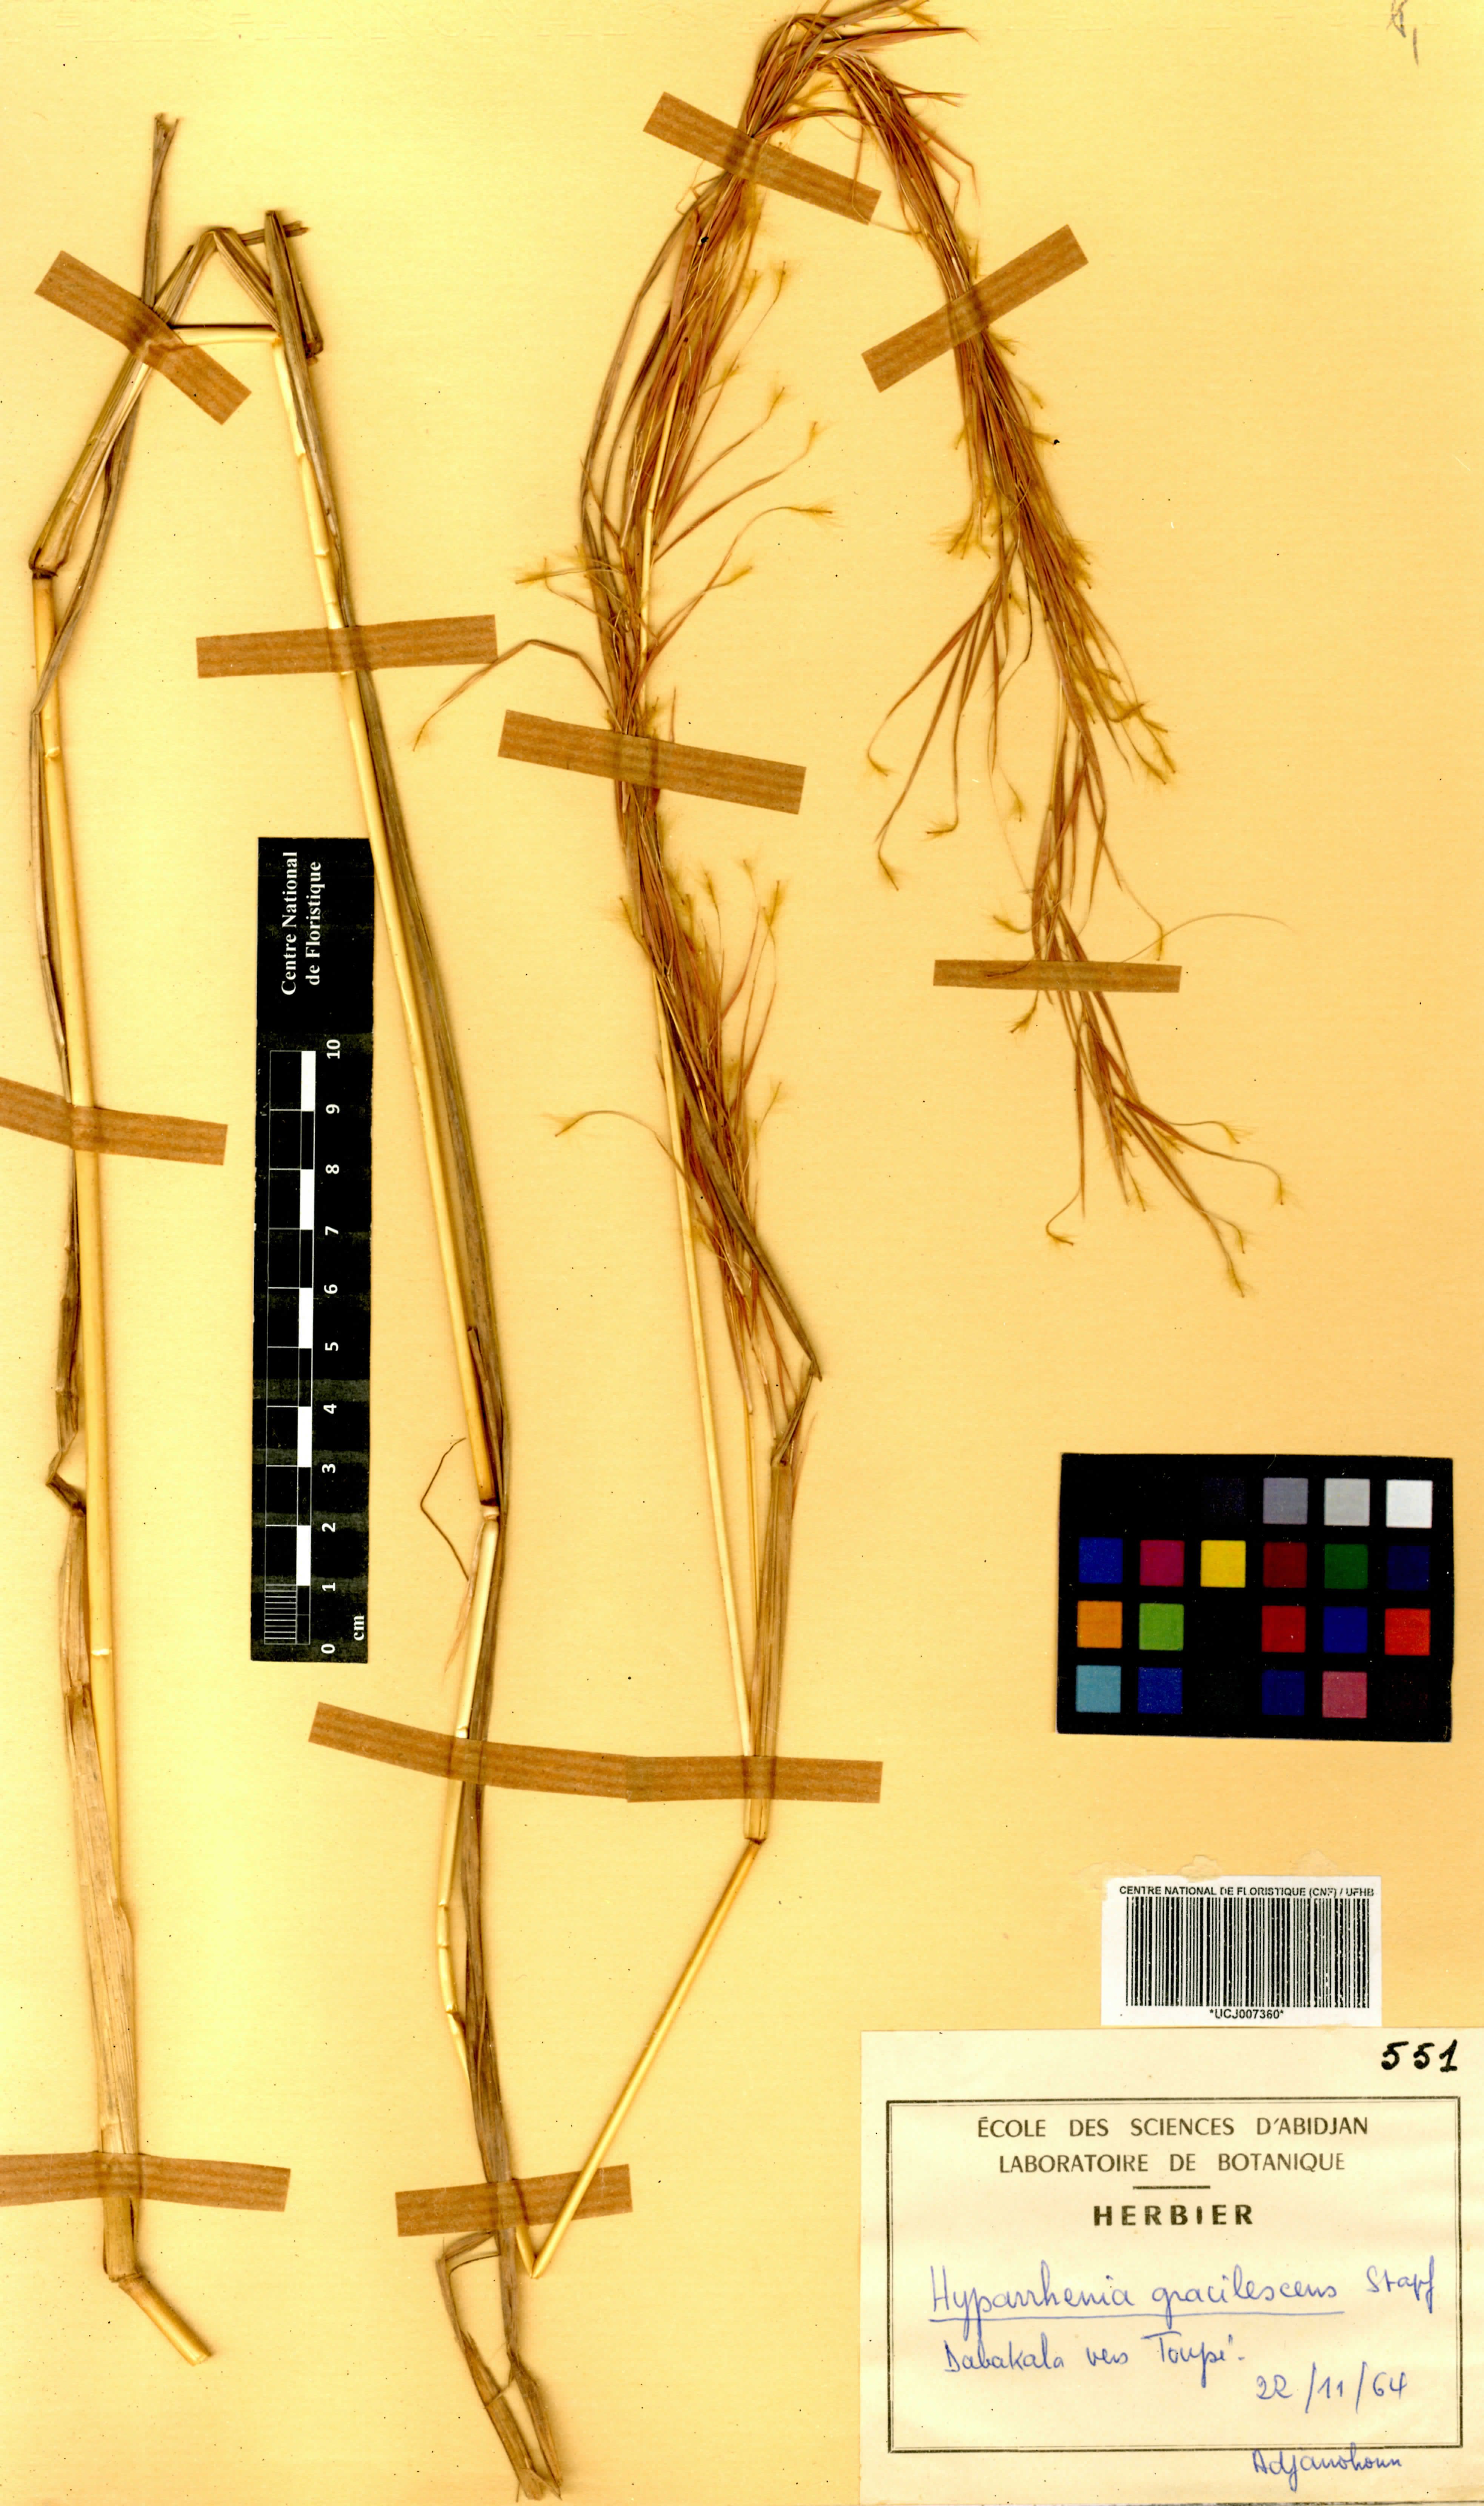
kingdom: Plantae
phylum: Tracheophyta
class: Liliopsida
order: Poales
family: Poaceae
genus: Hyparrhenia
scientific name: Hyparrhenia welwitschii
